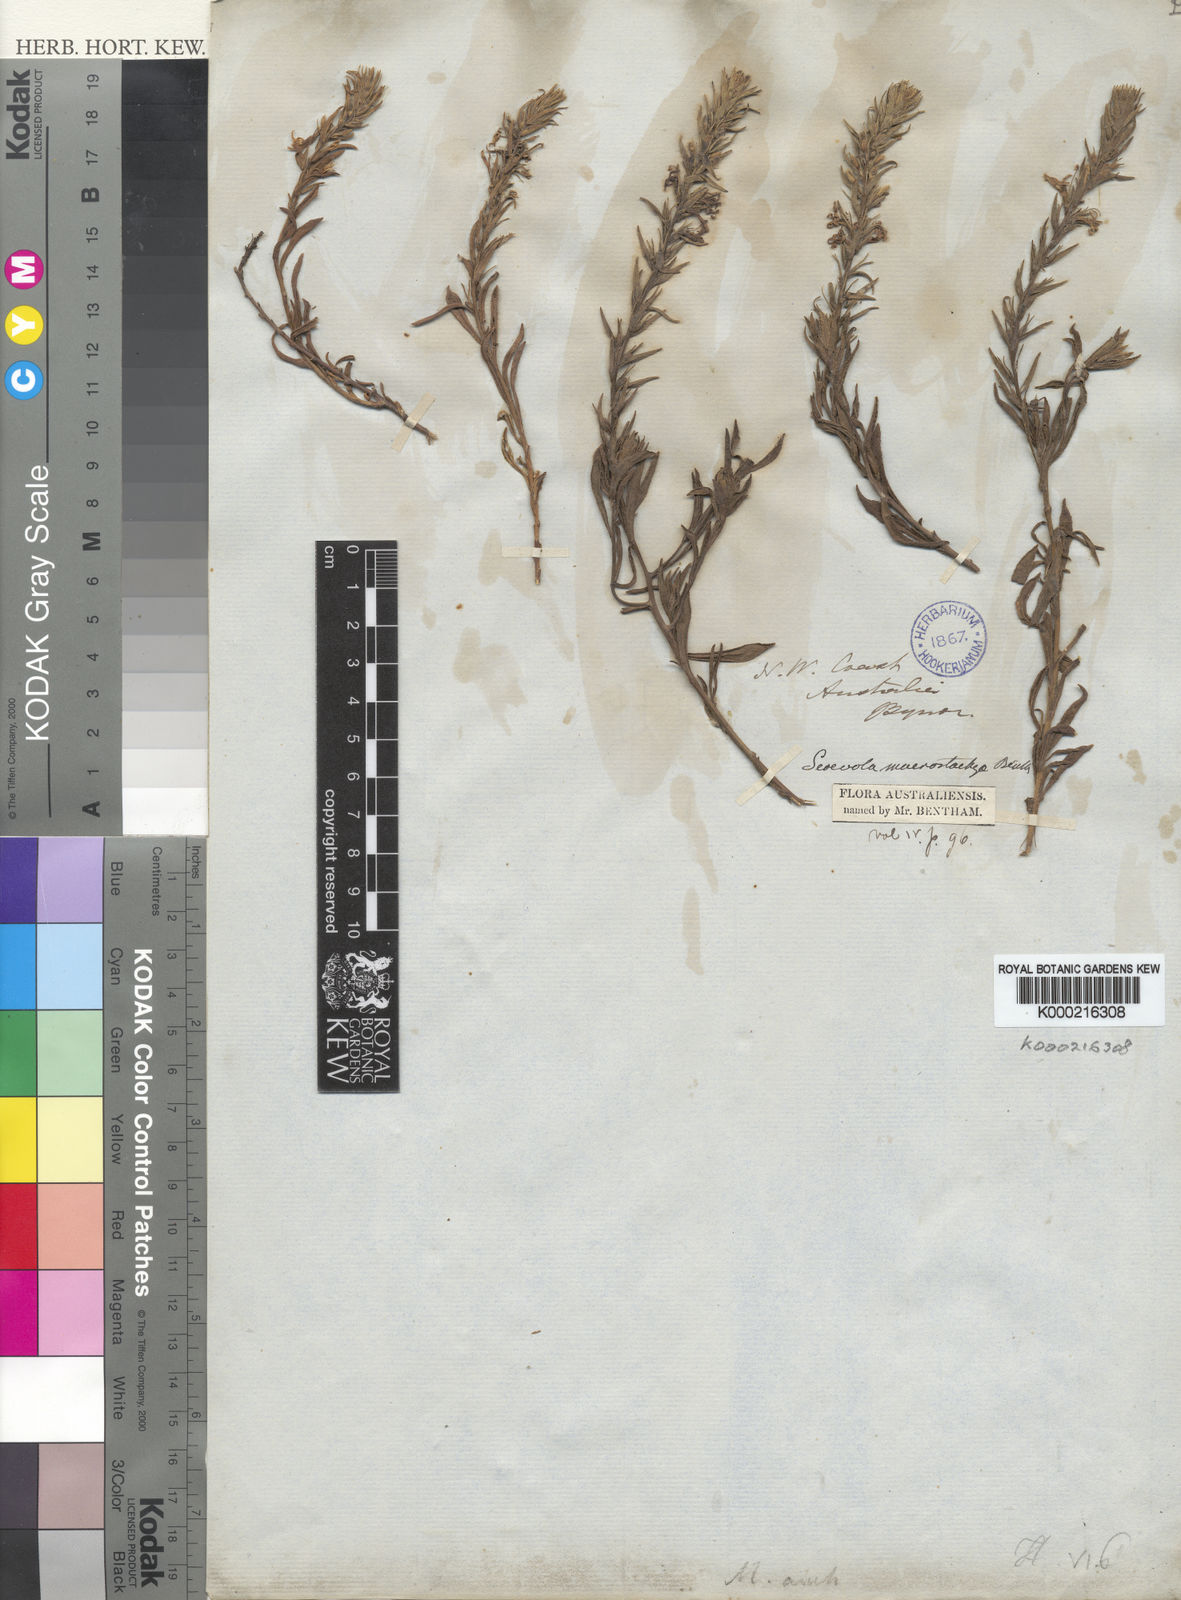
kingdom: Plantae
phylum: Tracheophyta
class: Magnoliopsida
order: Asterales
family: Goodeniaceae
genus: Scaevola
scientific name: Scaevola macrostachya
